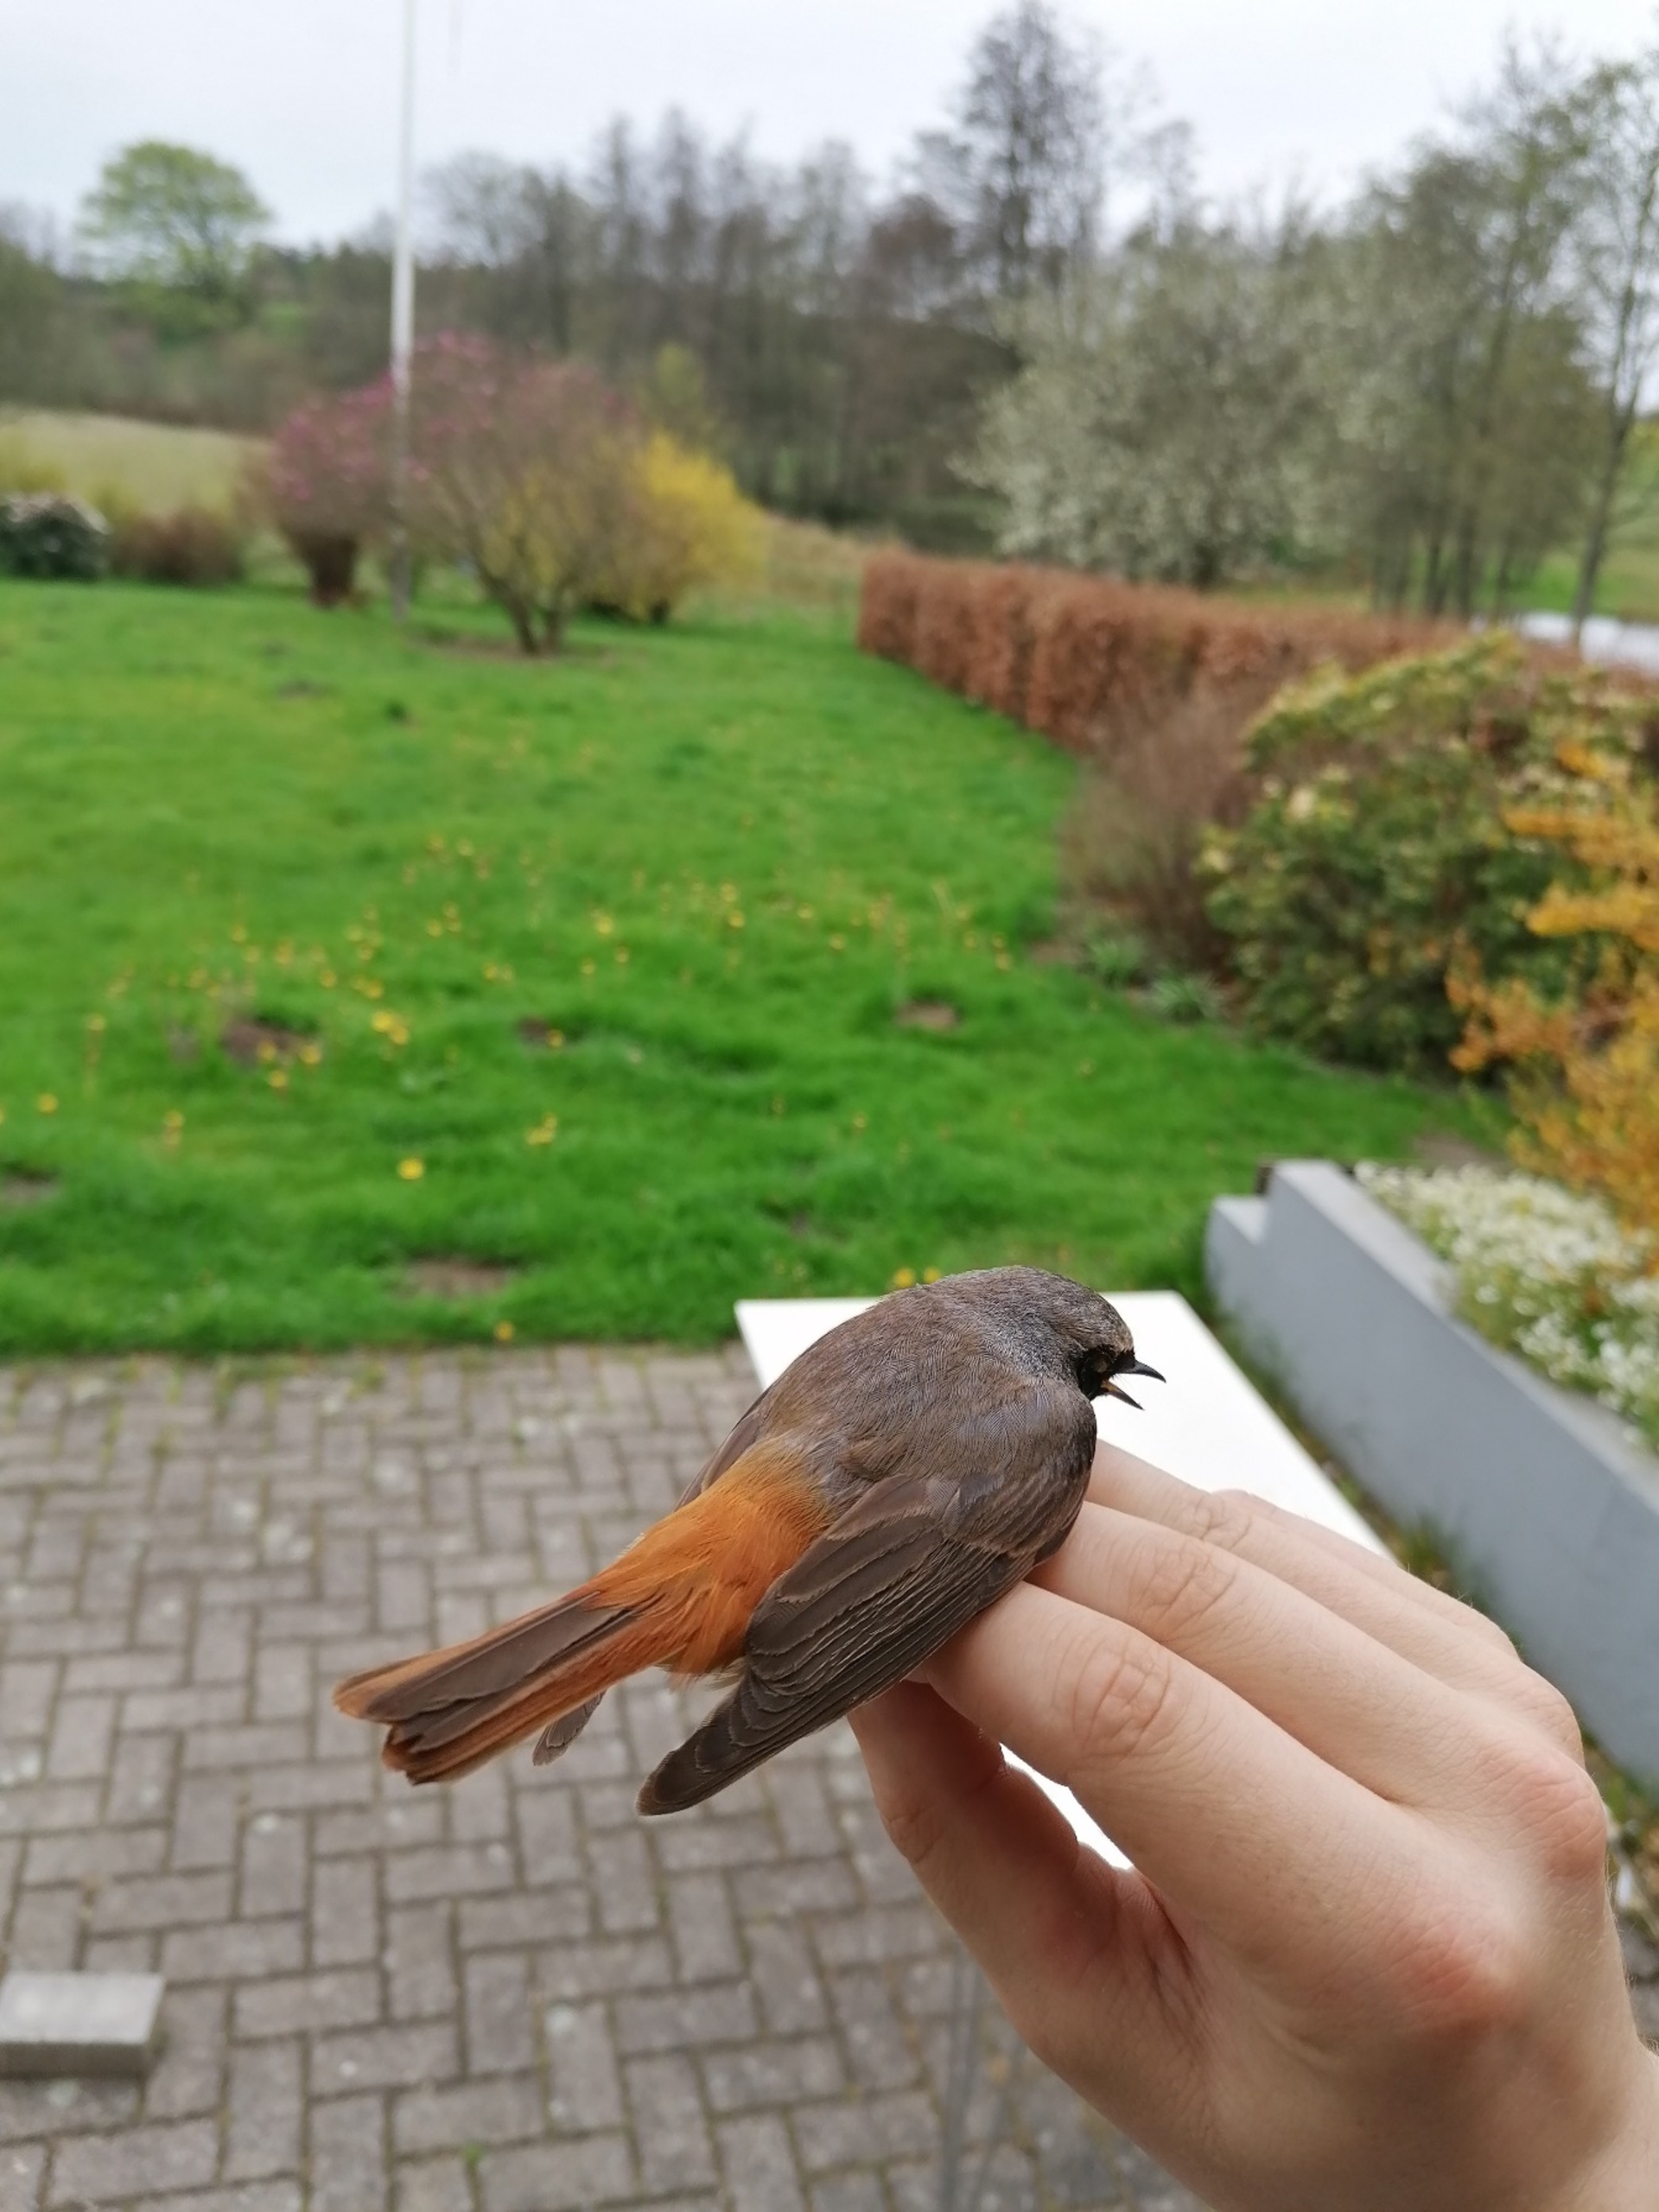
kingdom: Animalia
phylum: Chordata
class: Aves
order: Passeriformes
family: Muscicapidae
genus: Phoenicurus
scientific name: Phoenicurus phoenicurus
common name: Rødstjert
